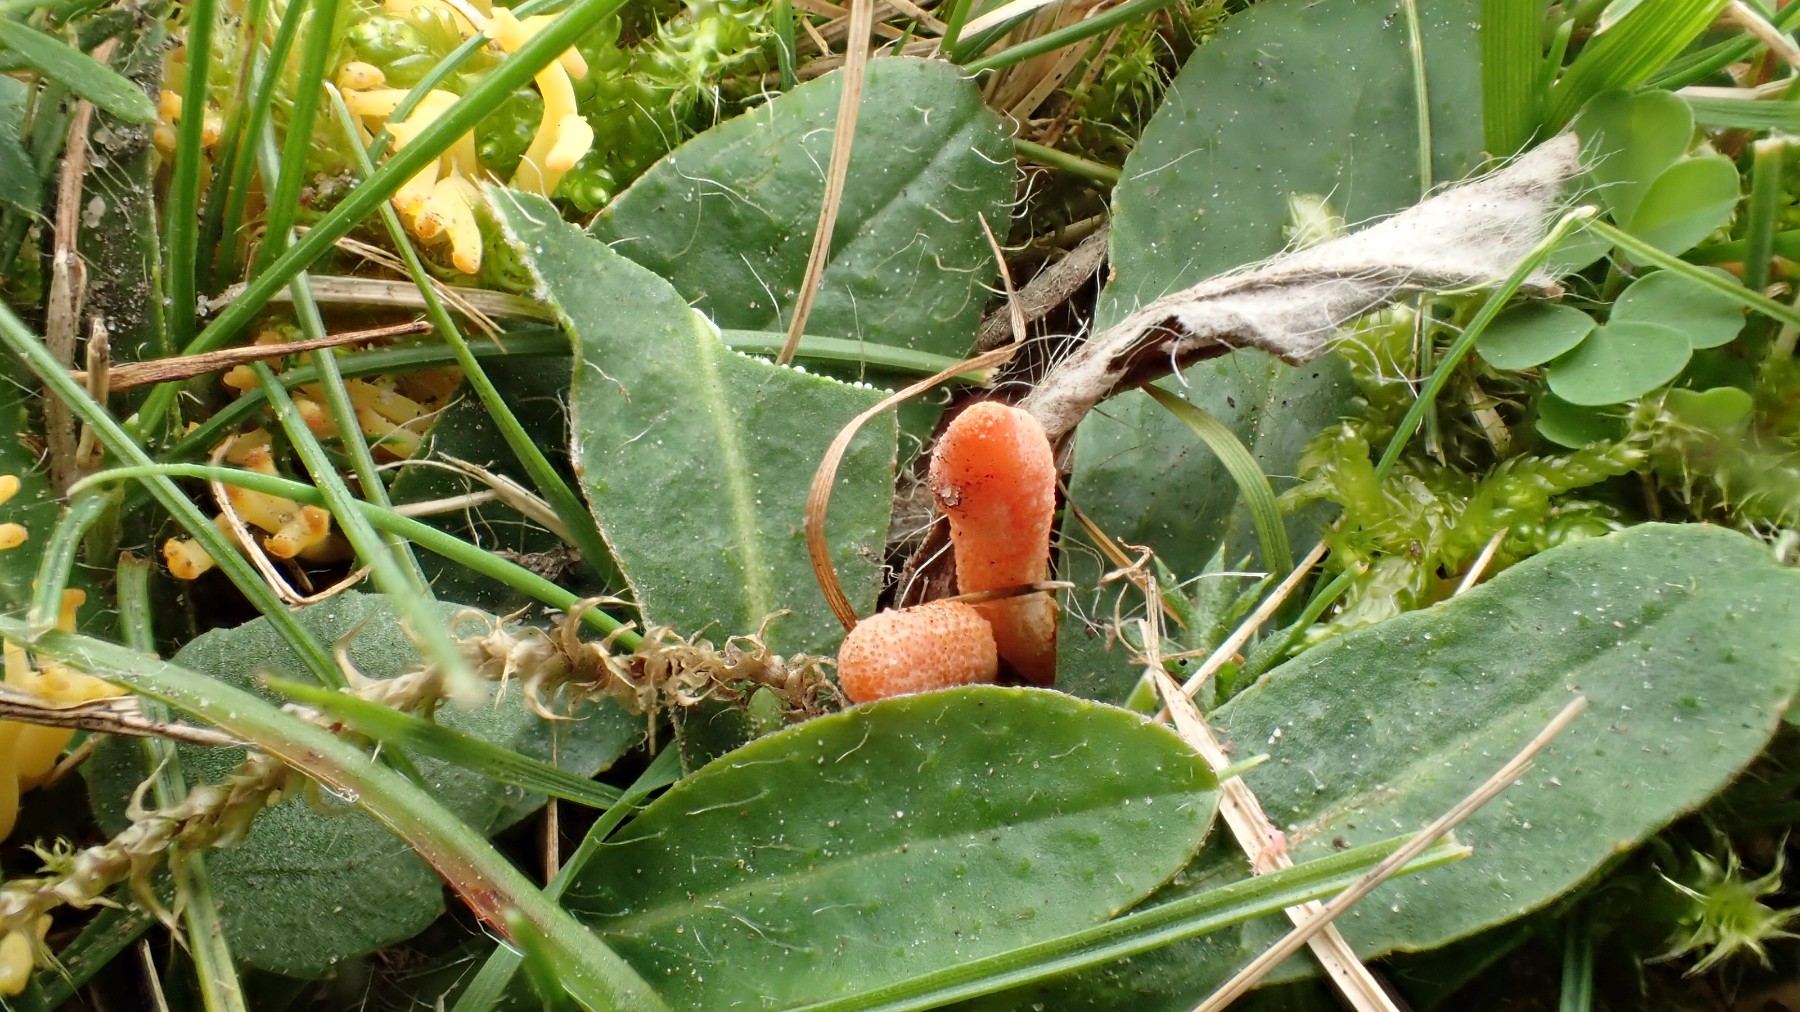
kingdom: Fungi
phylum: Ascomycota
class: Sordariomycetes
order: Hypocreales
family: Cordycipitaceae
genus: Cordyceps
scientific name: Cordyceps militaris
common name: puppe-snyltekølle
